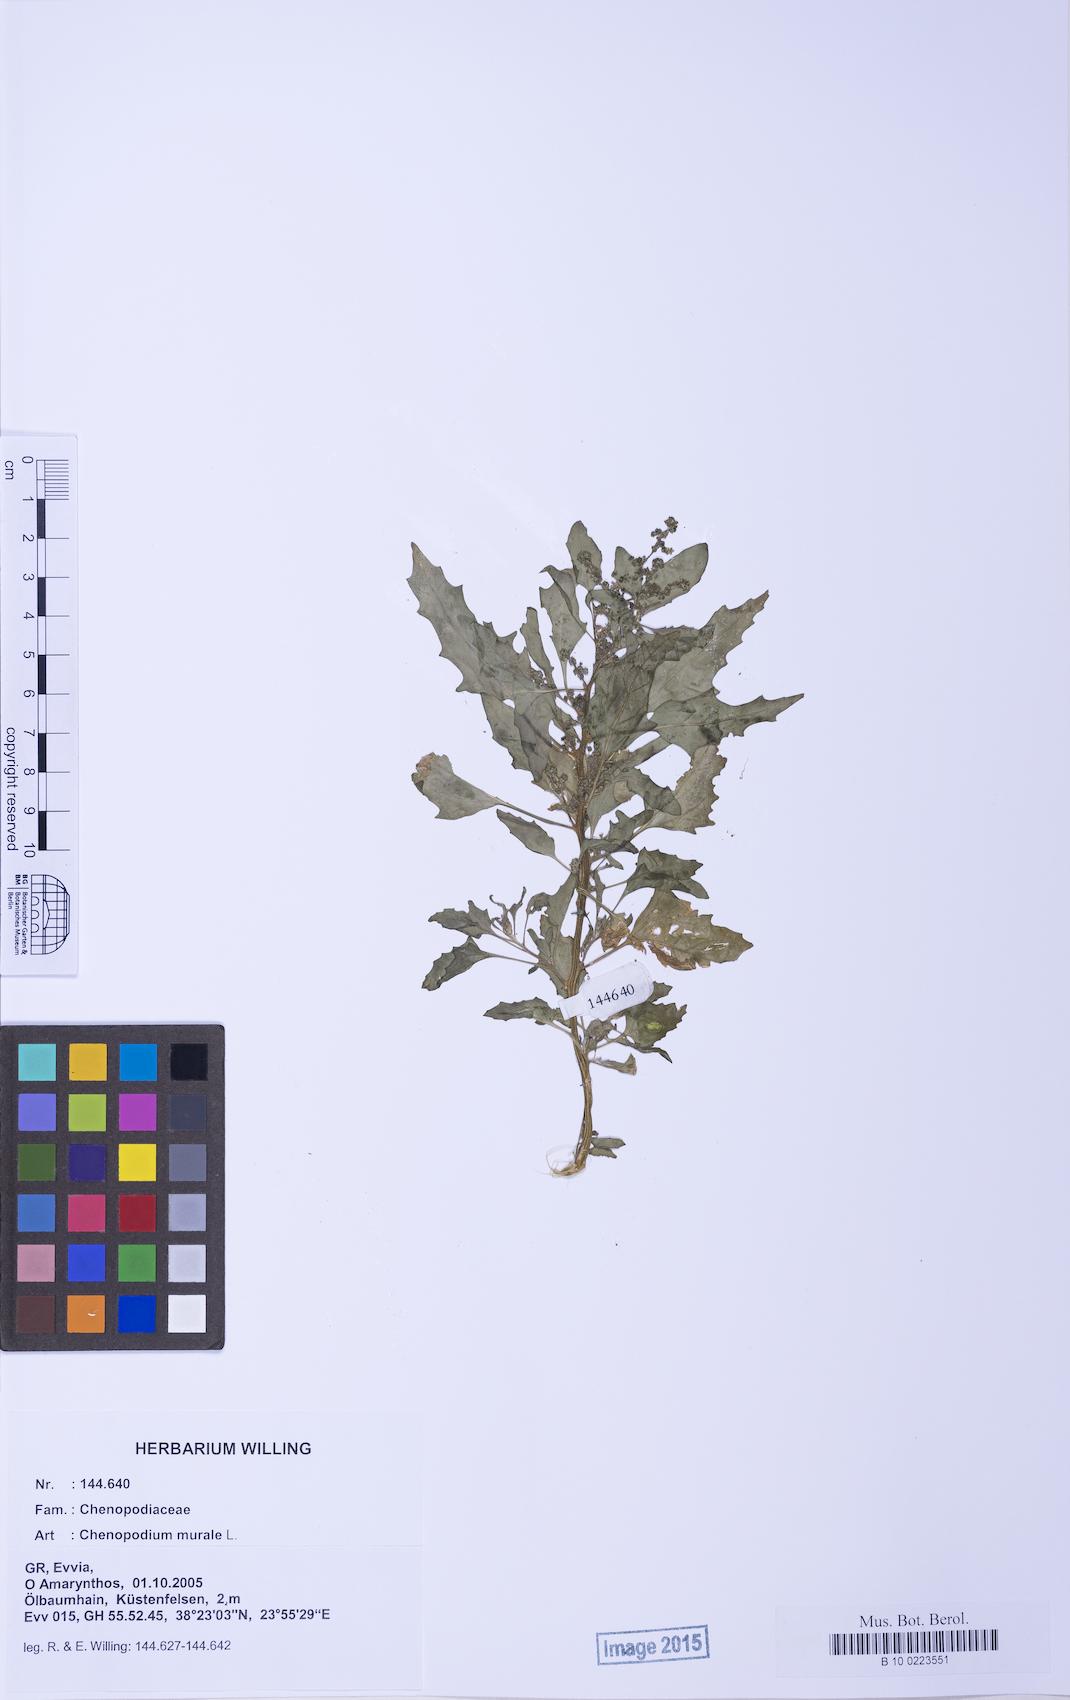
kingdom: Plantae
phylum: Tracheophyta
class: Magnoliopsida
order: Caryophyllales
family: Amaranthaceae
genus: Chenopodiastrum
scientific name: Chenopodiastrum murale
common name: Sowbane
